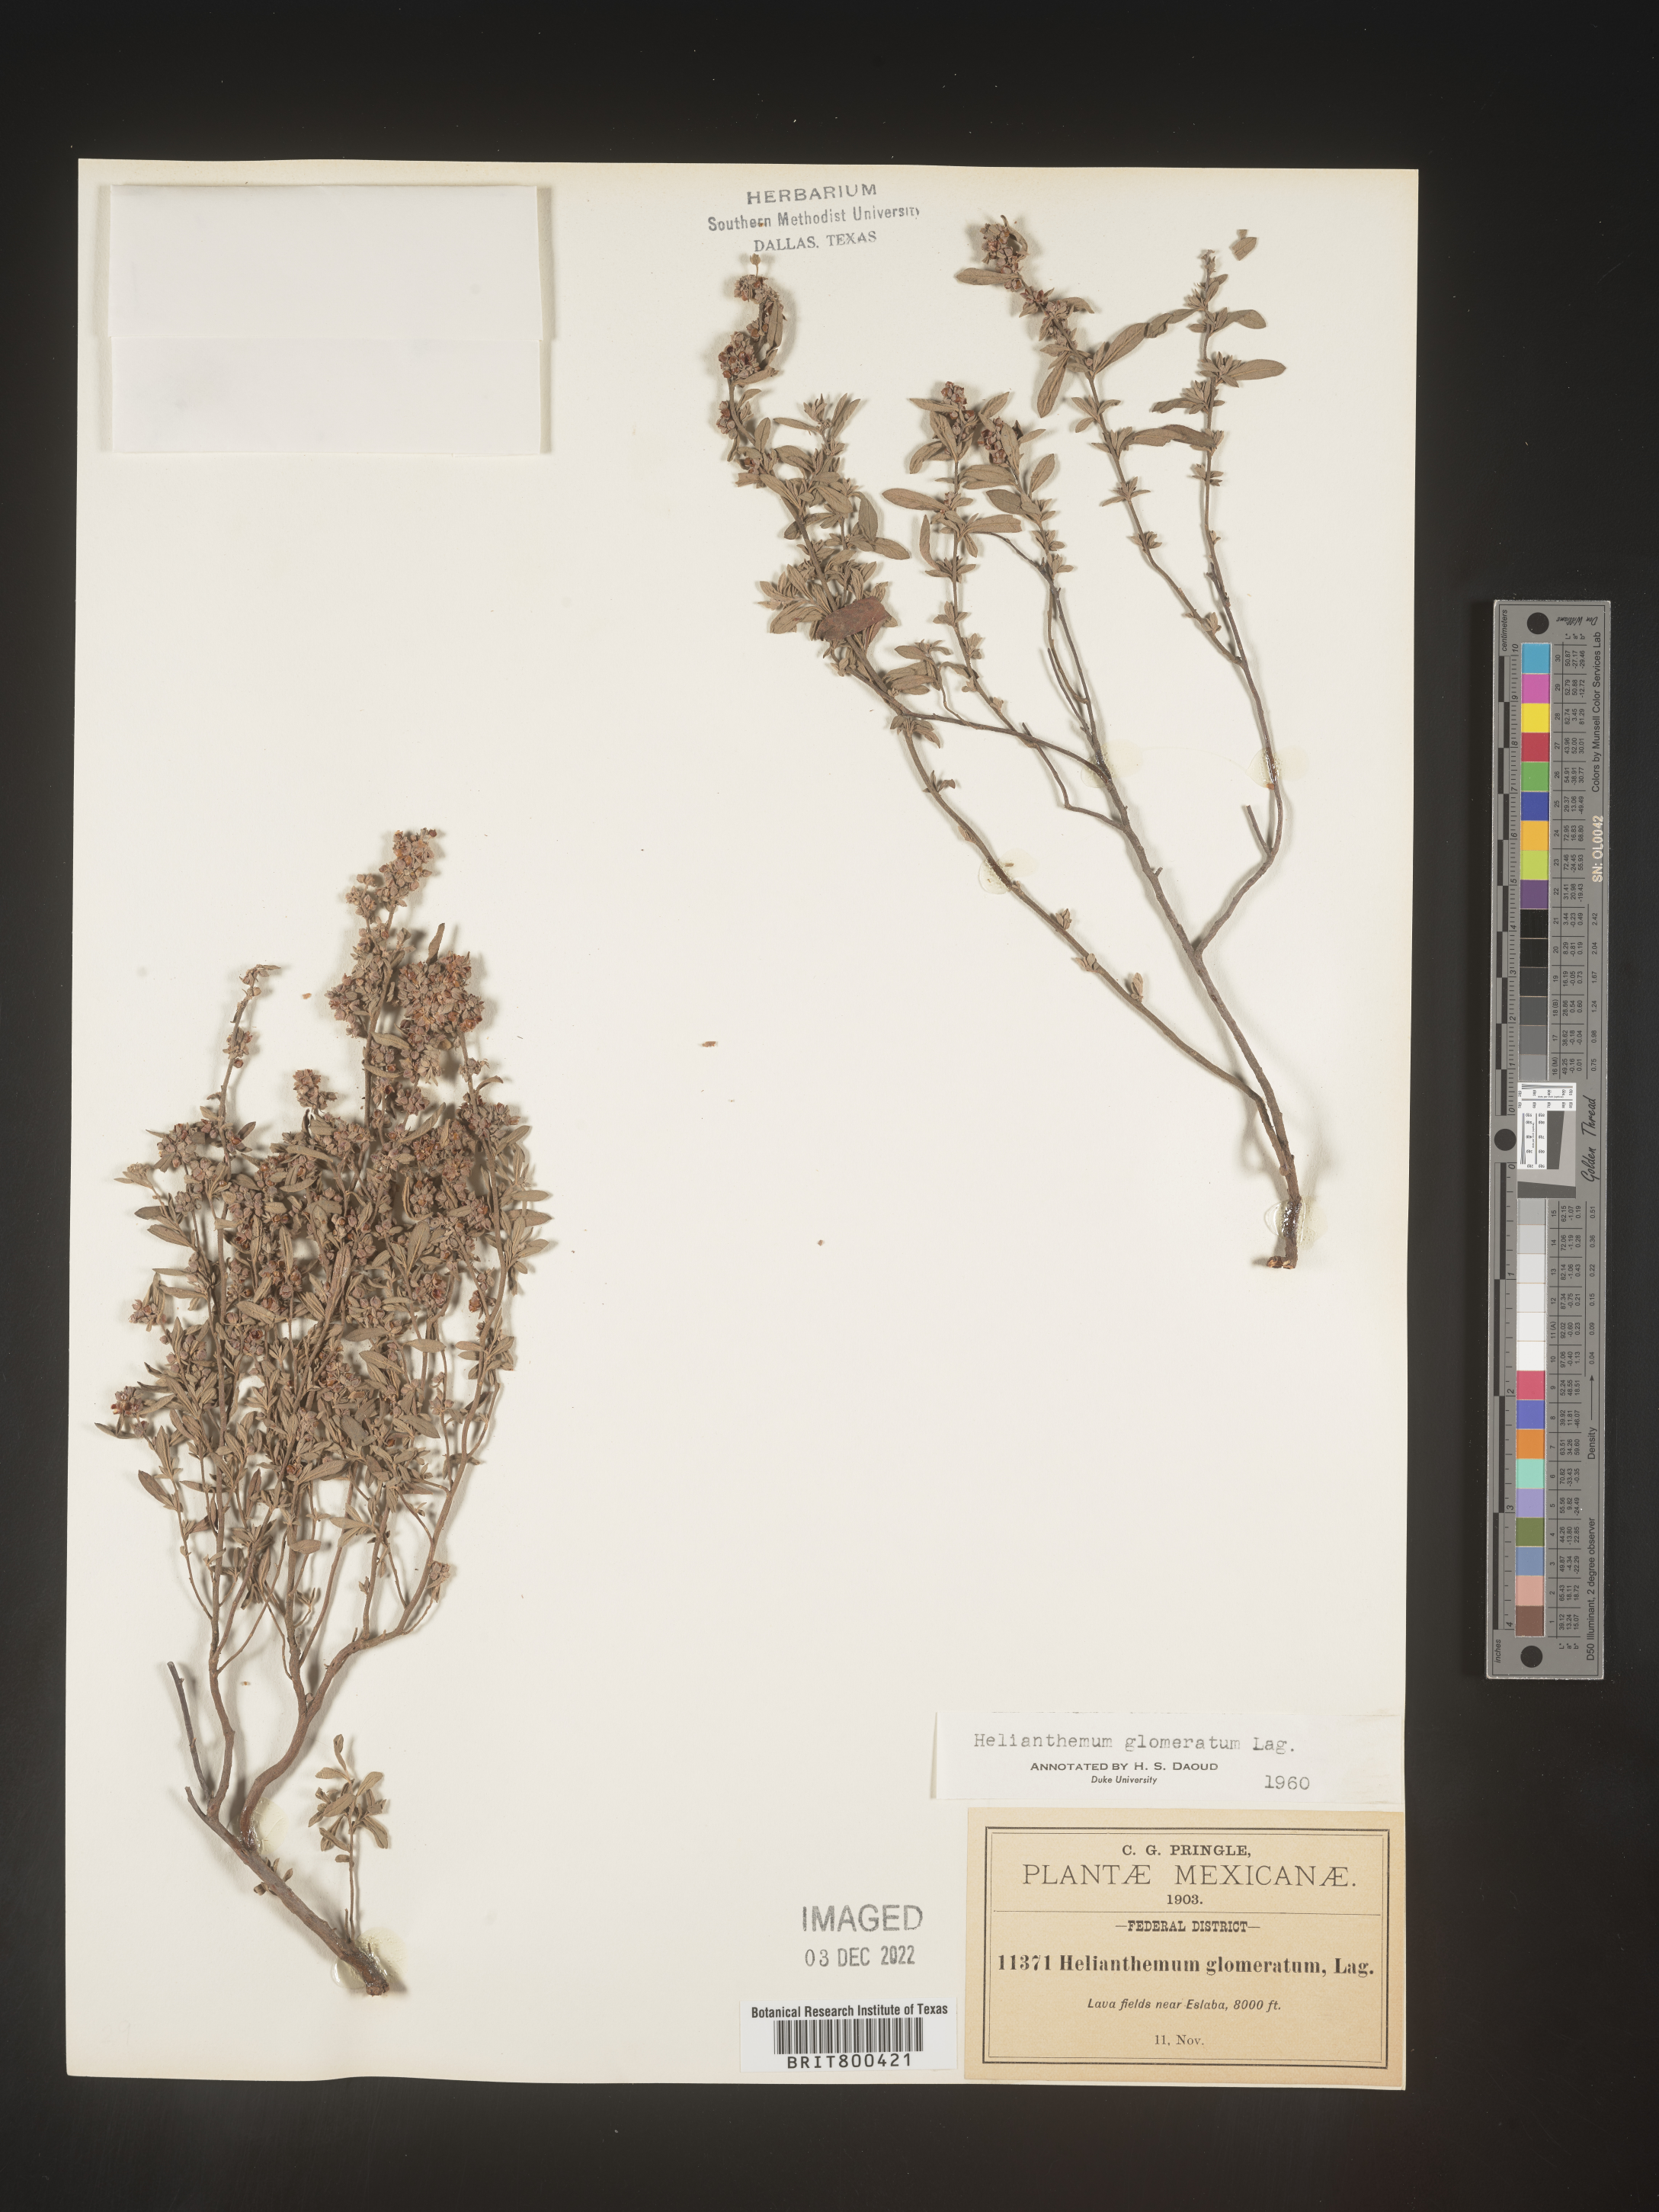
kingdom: Plantae
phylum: Tracheophyta
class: Magnoliopsida
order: Malvales
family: Cistaceae
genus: Helianthemum
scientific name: Helianthemum
